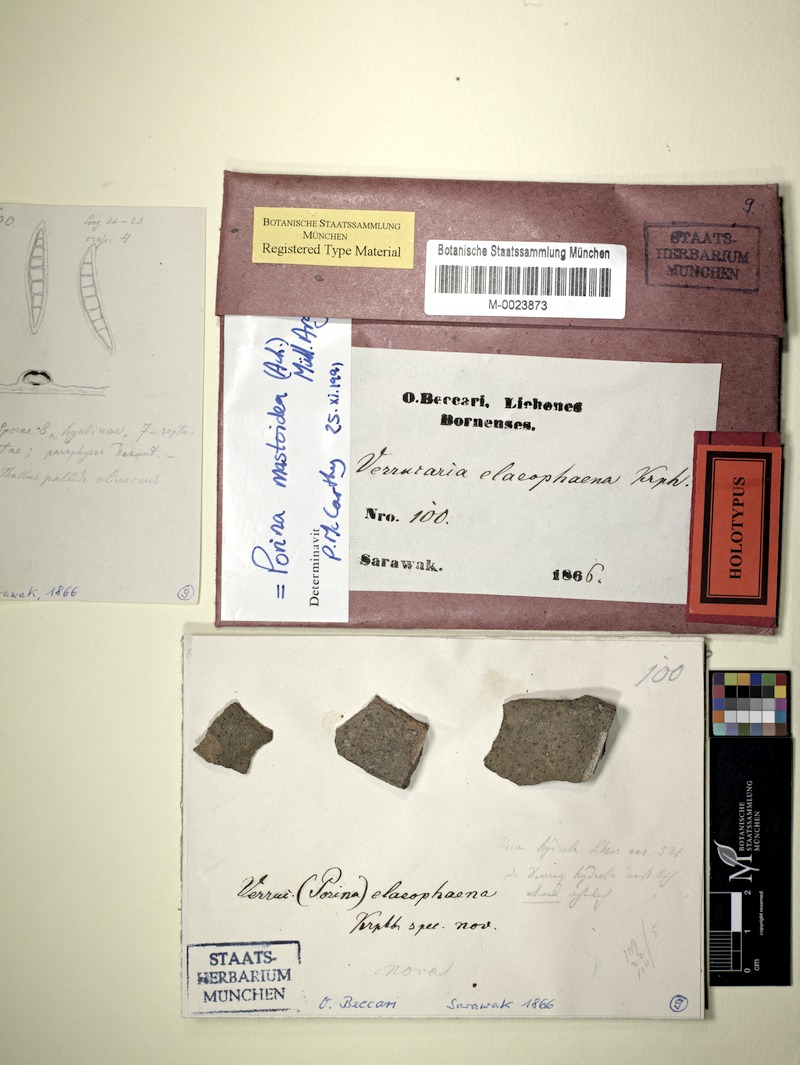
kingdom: Fungi
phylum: Ascomycota
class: Lecanoromycetes
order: Ostropales
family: Porinaceae
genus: Clathroporina
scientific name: Clathroporina mastoidea
